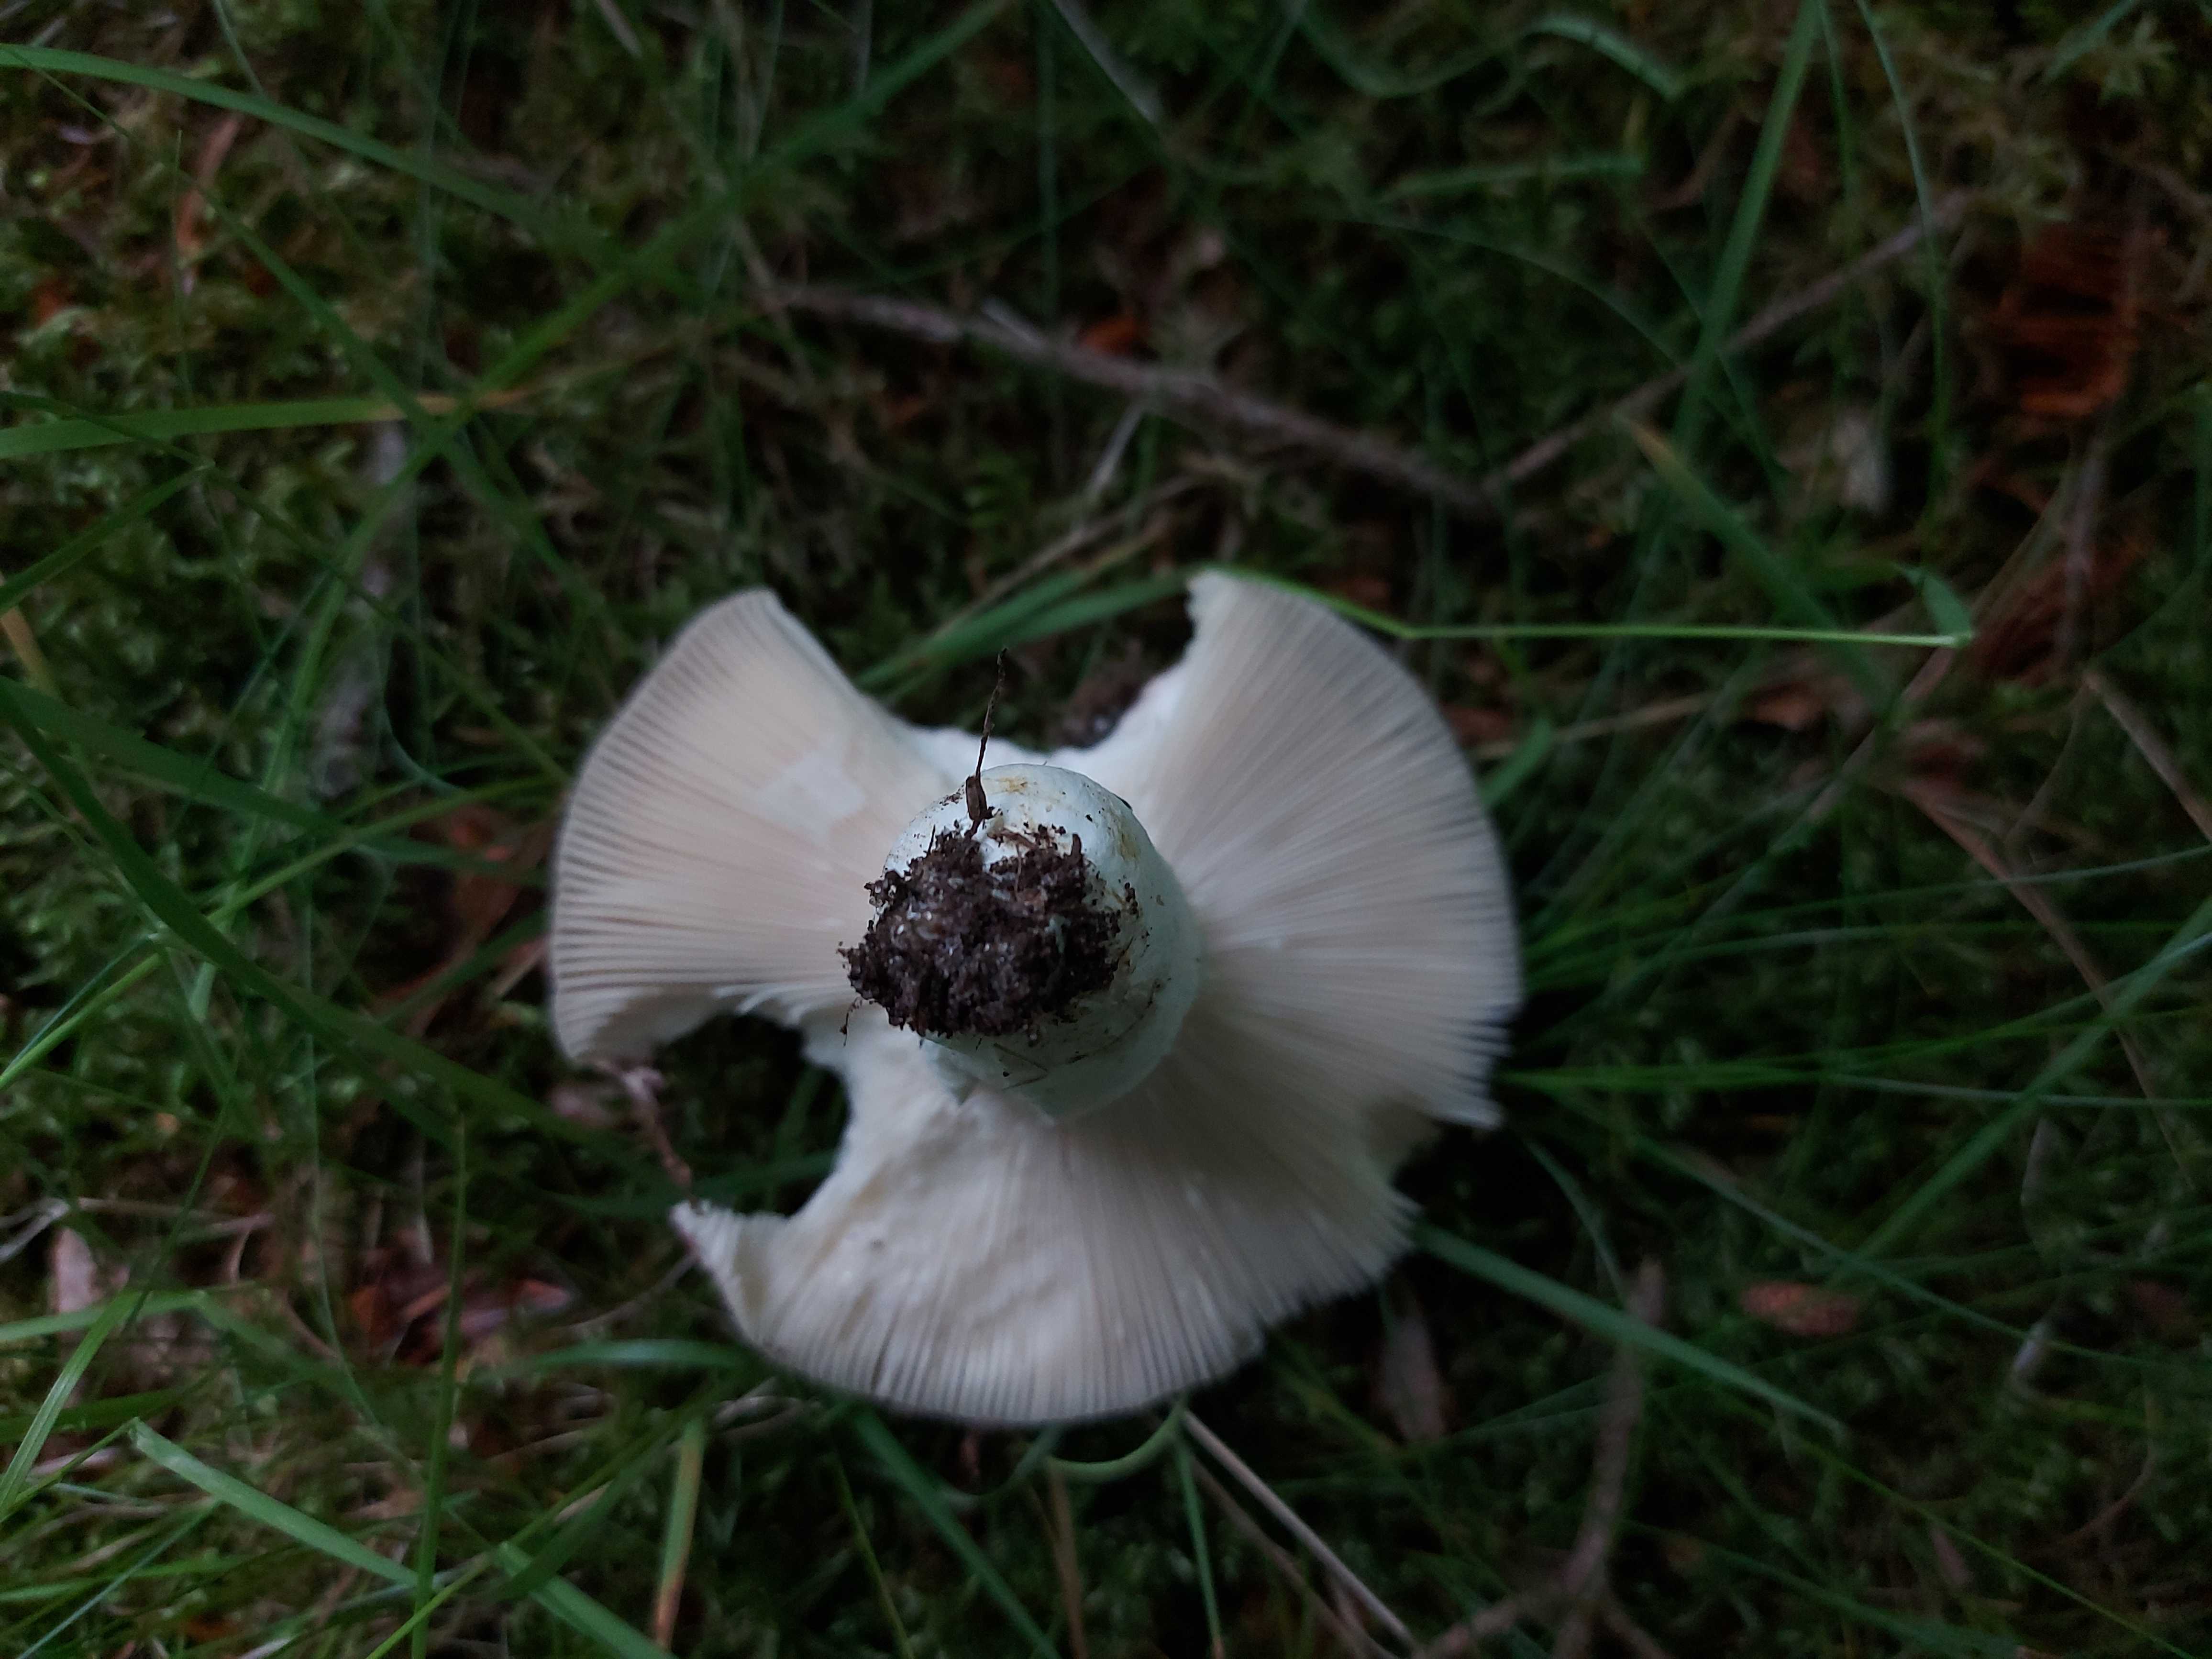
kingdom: Fungi
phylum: Basidiomycota
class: Agaricomycetes
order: Russulales
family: Russulaceae
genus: Russula
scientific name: Russula vesca
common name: spiselig skørhat
